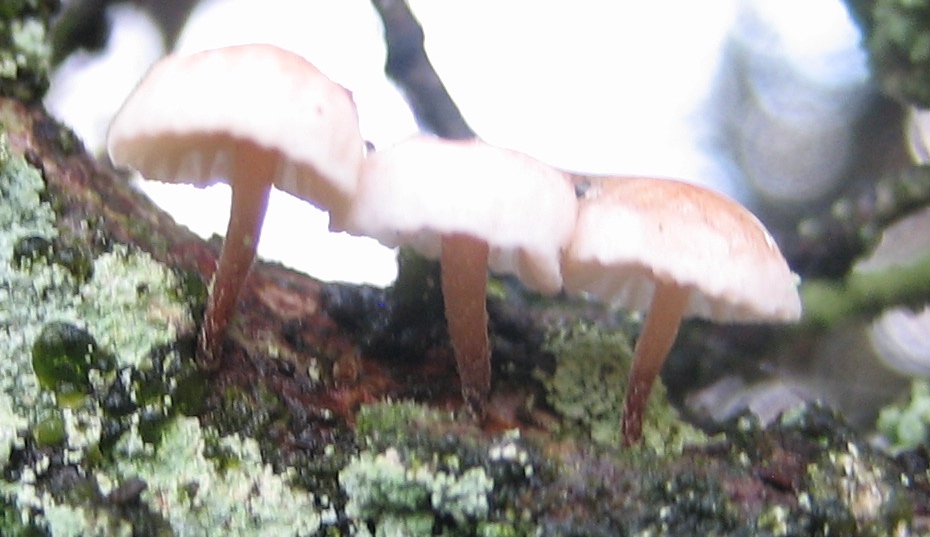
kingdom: Fungi
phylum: Basidiomycota
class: Agaricomycetes
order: Agaricales
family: Mycenaceae
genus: Mycena
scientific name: Mycena
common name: huesvamp
